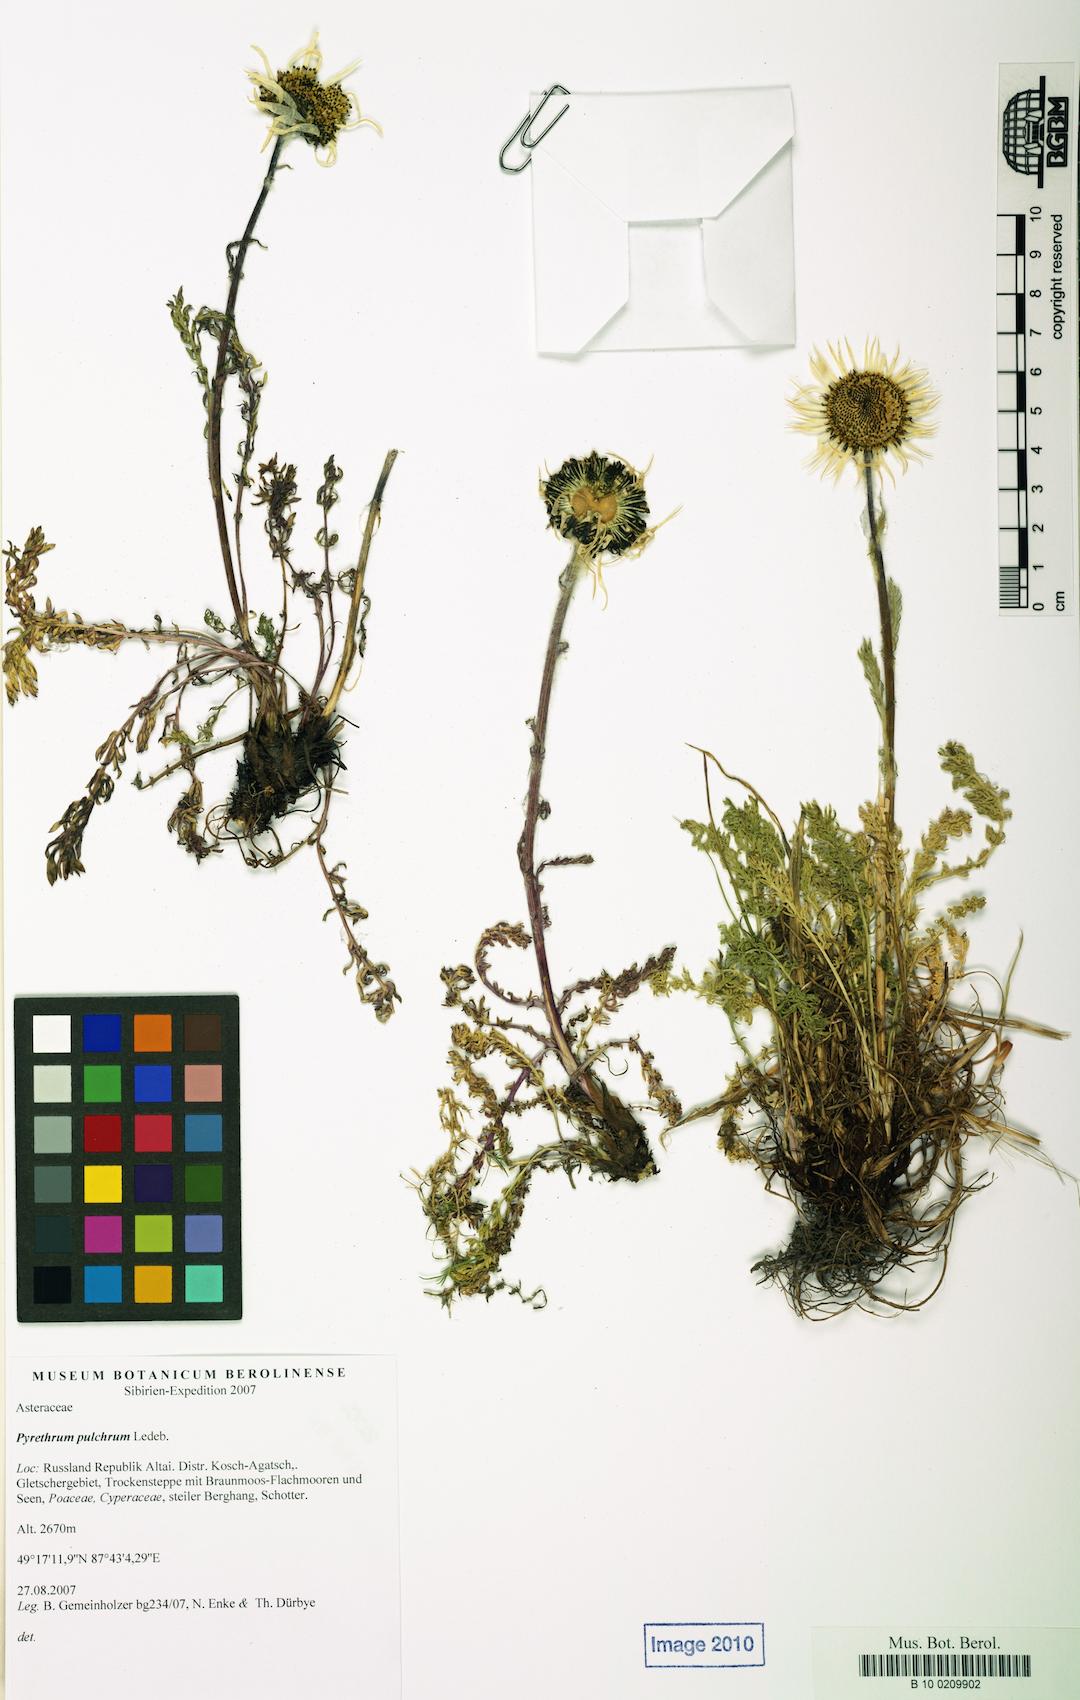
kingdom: Plantae
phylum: Tracheophyta
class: Magnoliopsida
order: Asterales
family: Asteraceae
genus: Tanacetum
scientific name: Tanacetum pulchrum
